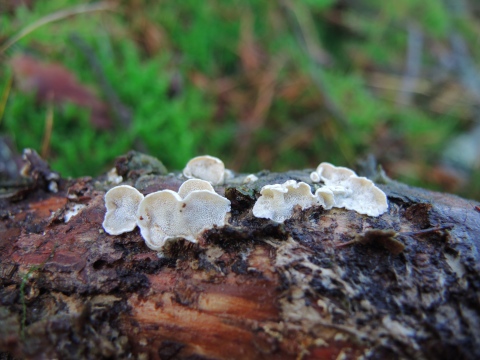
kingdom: Fungi
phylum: Basidiomycota
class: Agaricomycetes
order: Polyporales
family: Incrustoporiaceae
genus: Skeletocutis
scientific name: Skeletocutis carneogrisea
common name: rødgrå krystalporesvamp
